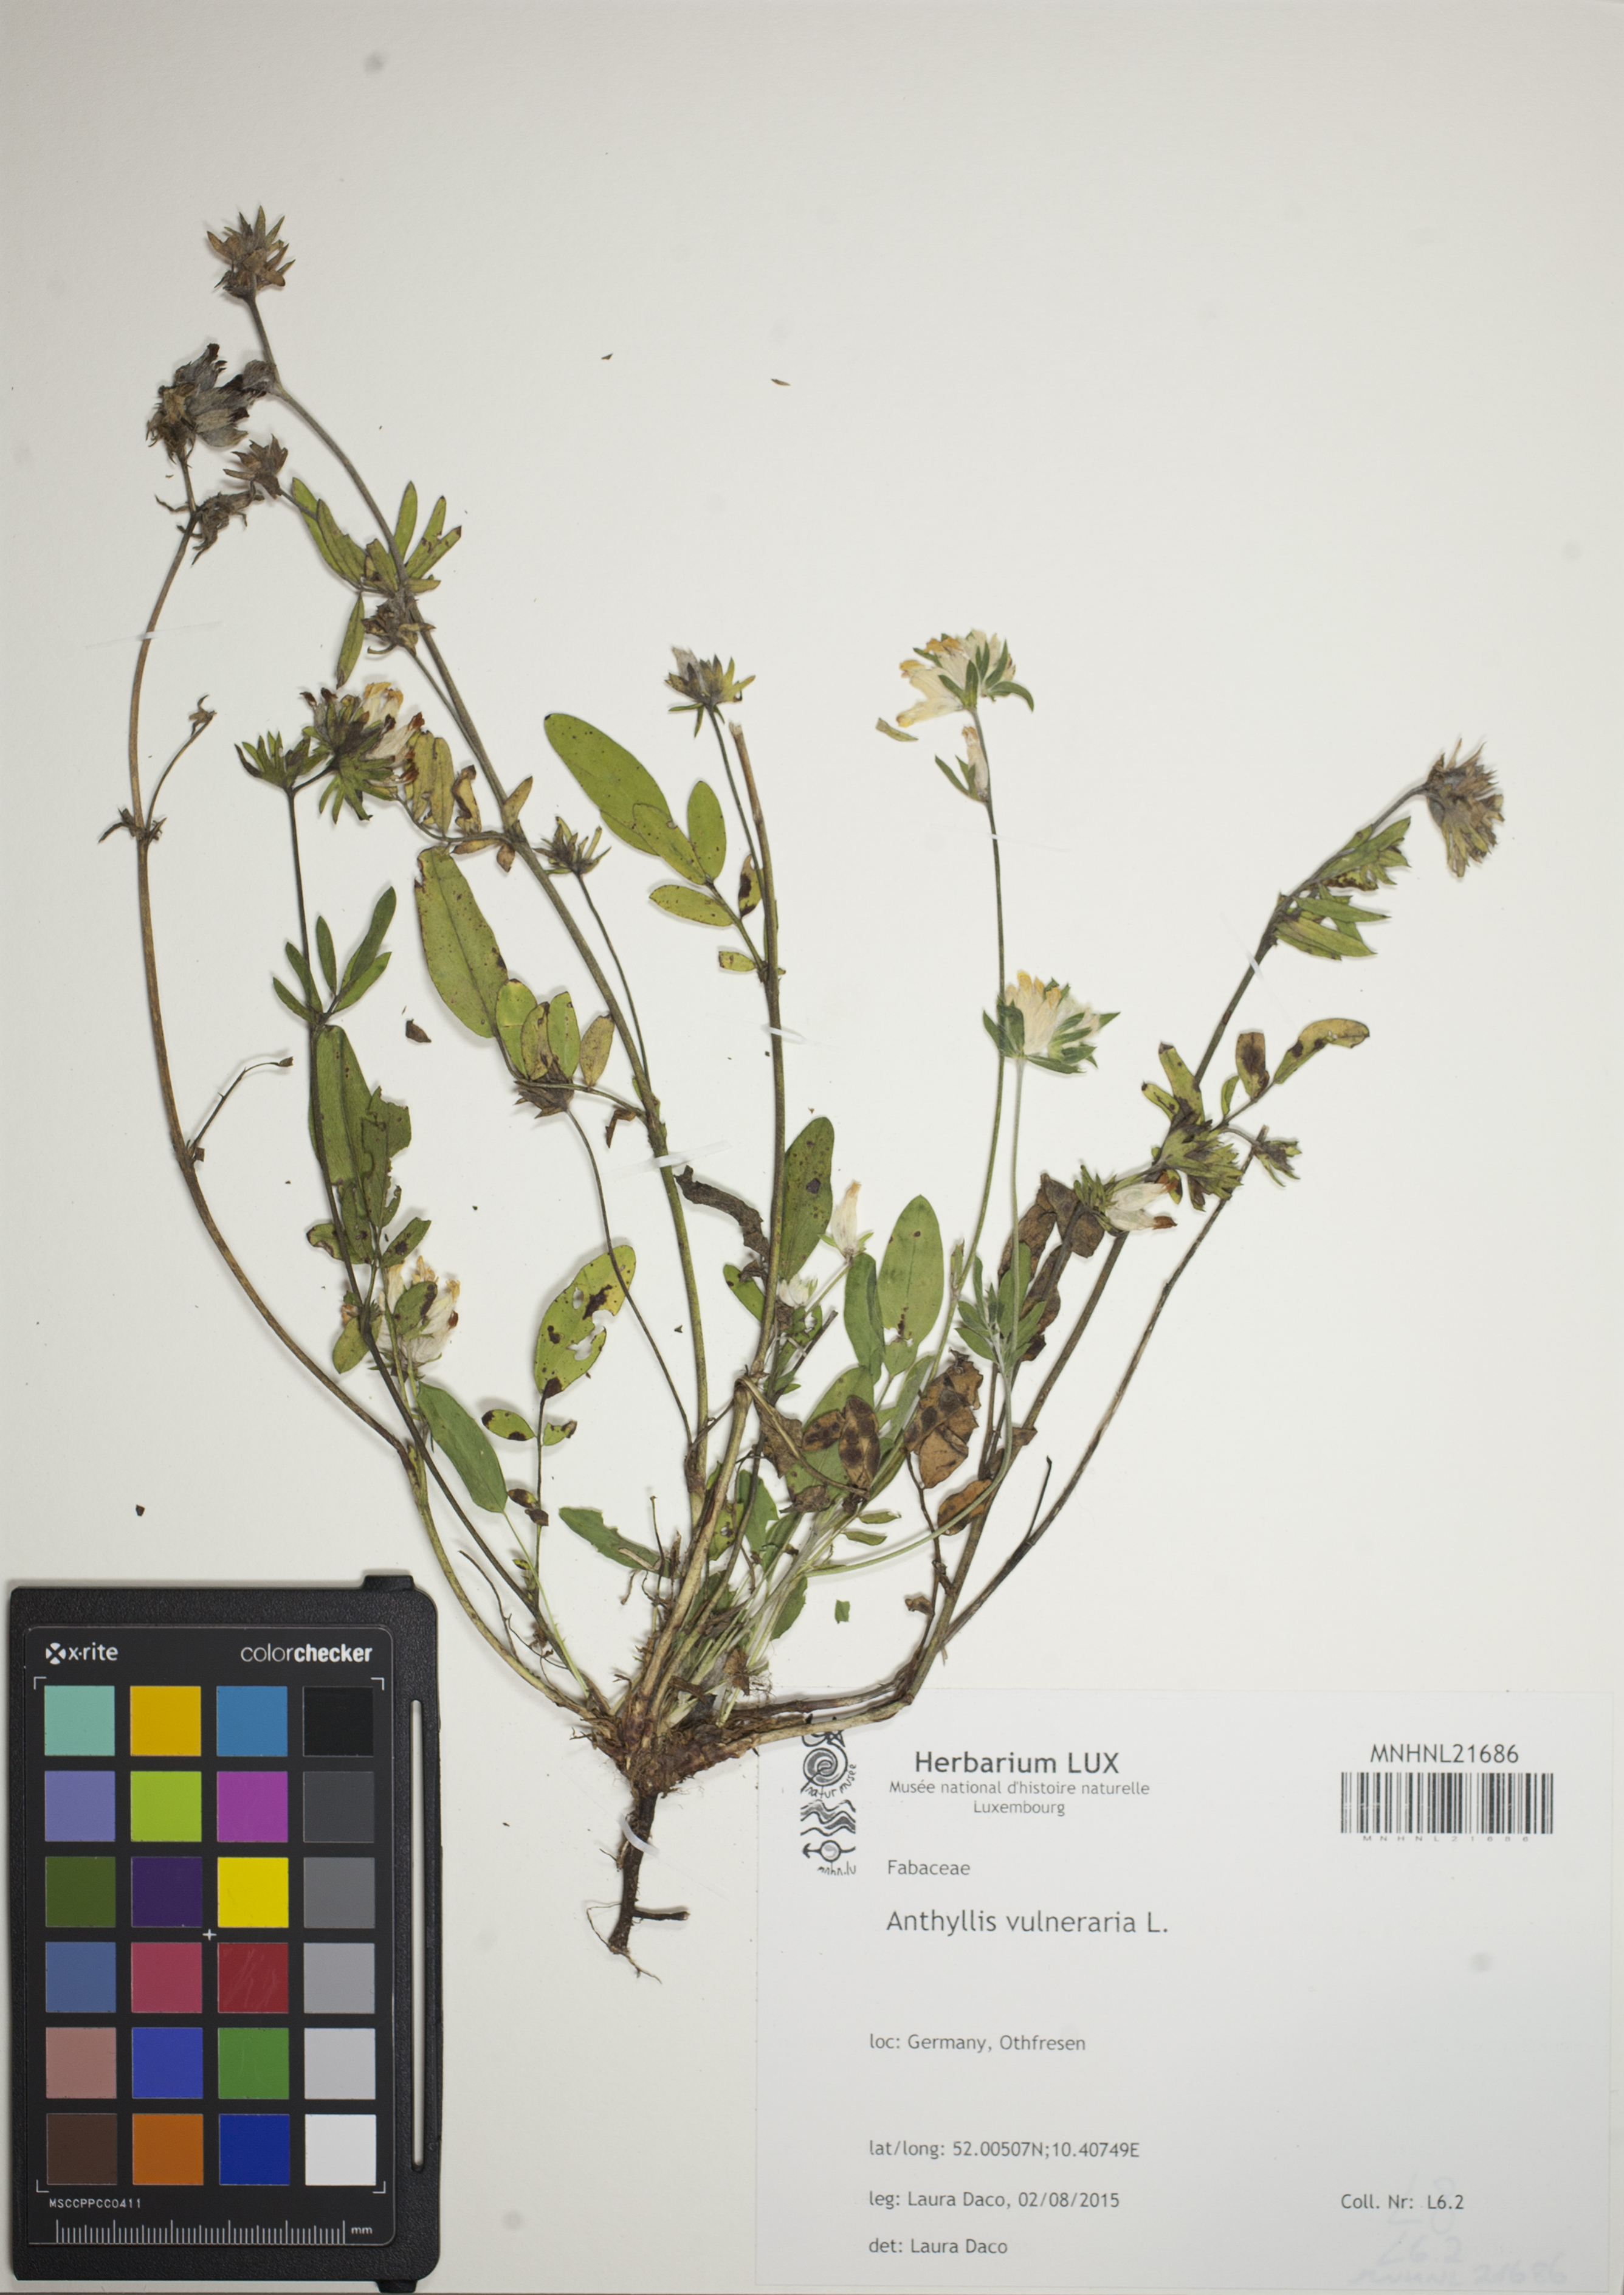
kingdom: Plantae
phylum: Tracheophyta
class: Magnoliopsida
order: Fabales
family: Fabaceae
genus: Anthyllis
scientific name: Anthyllis vulneraria
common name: Kidney vetch
